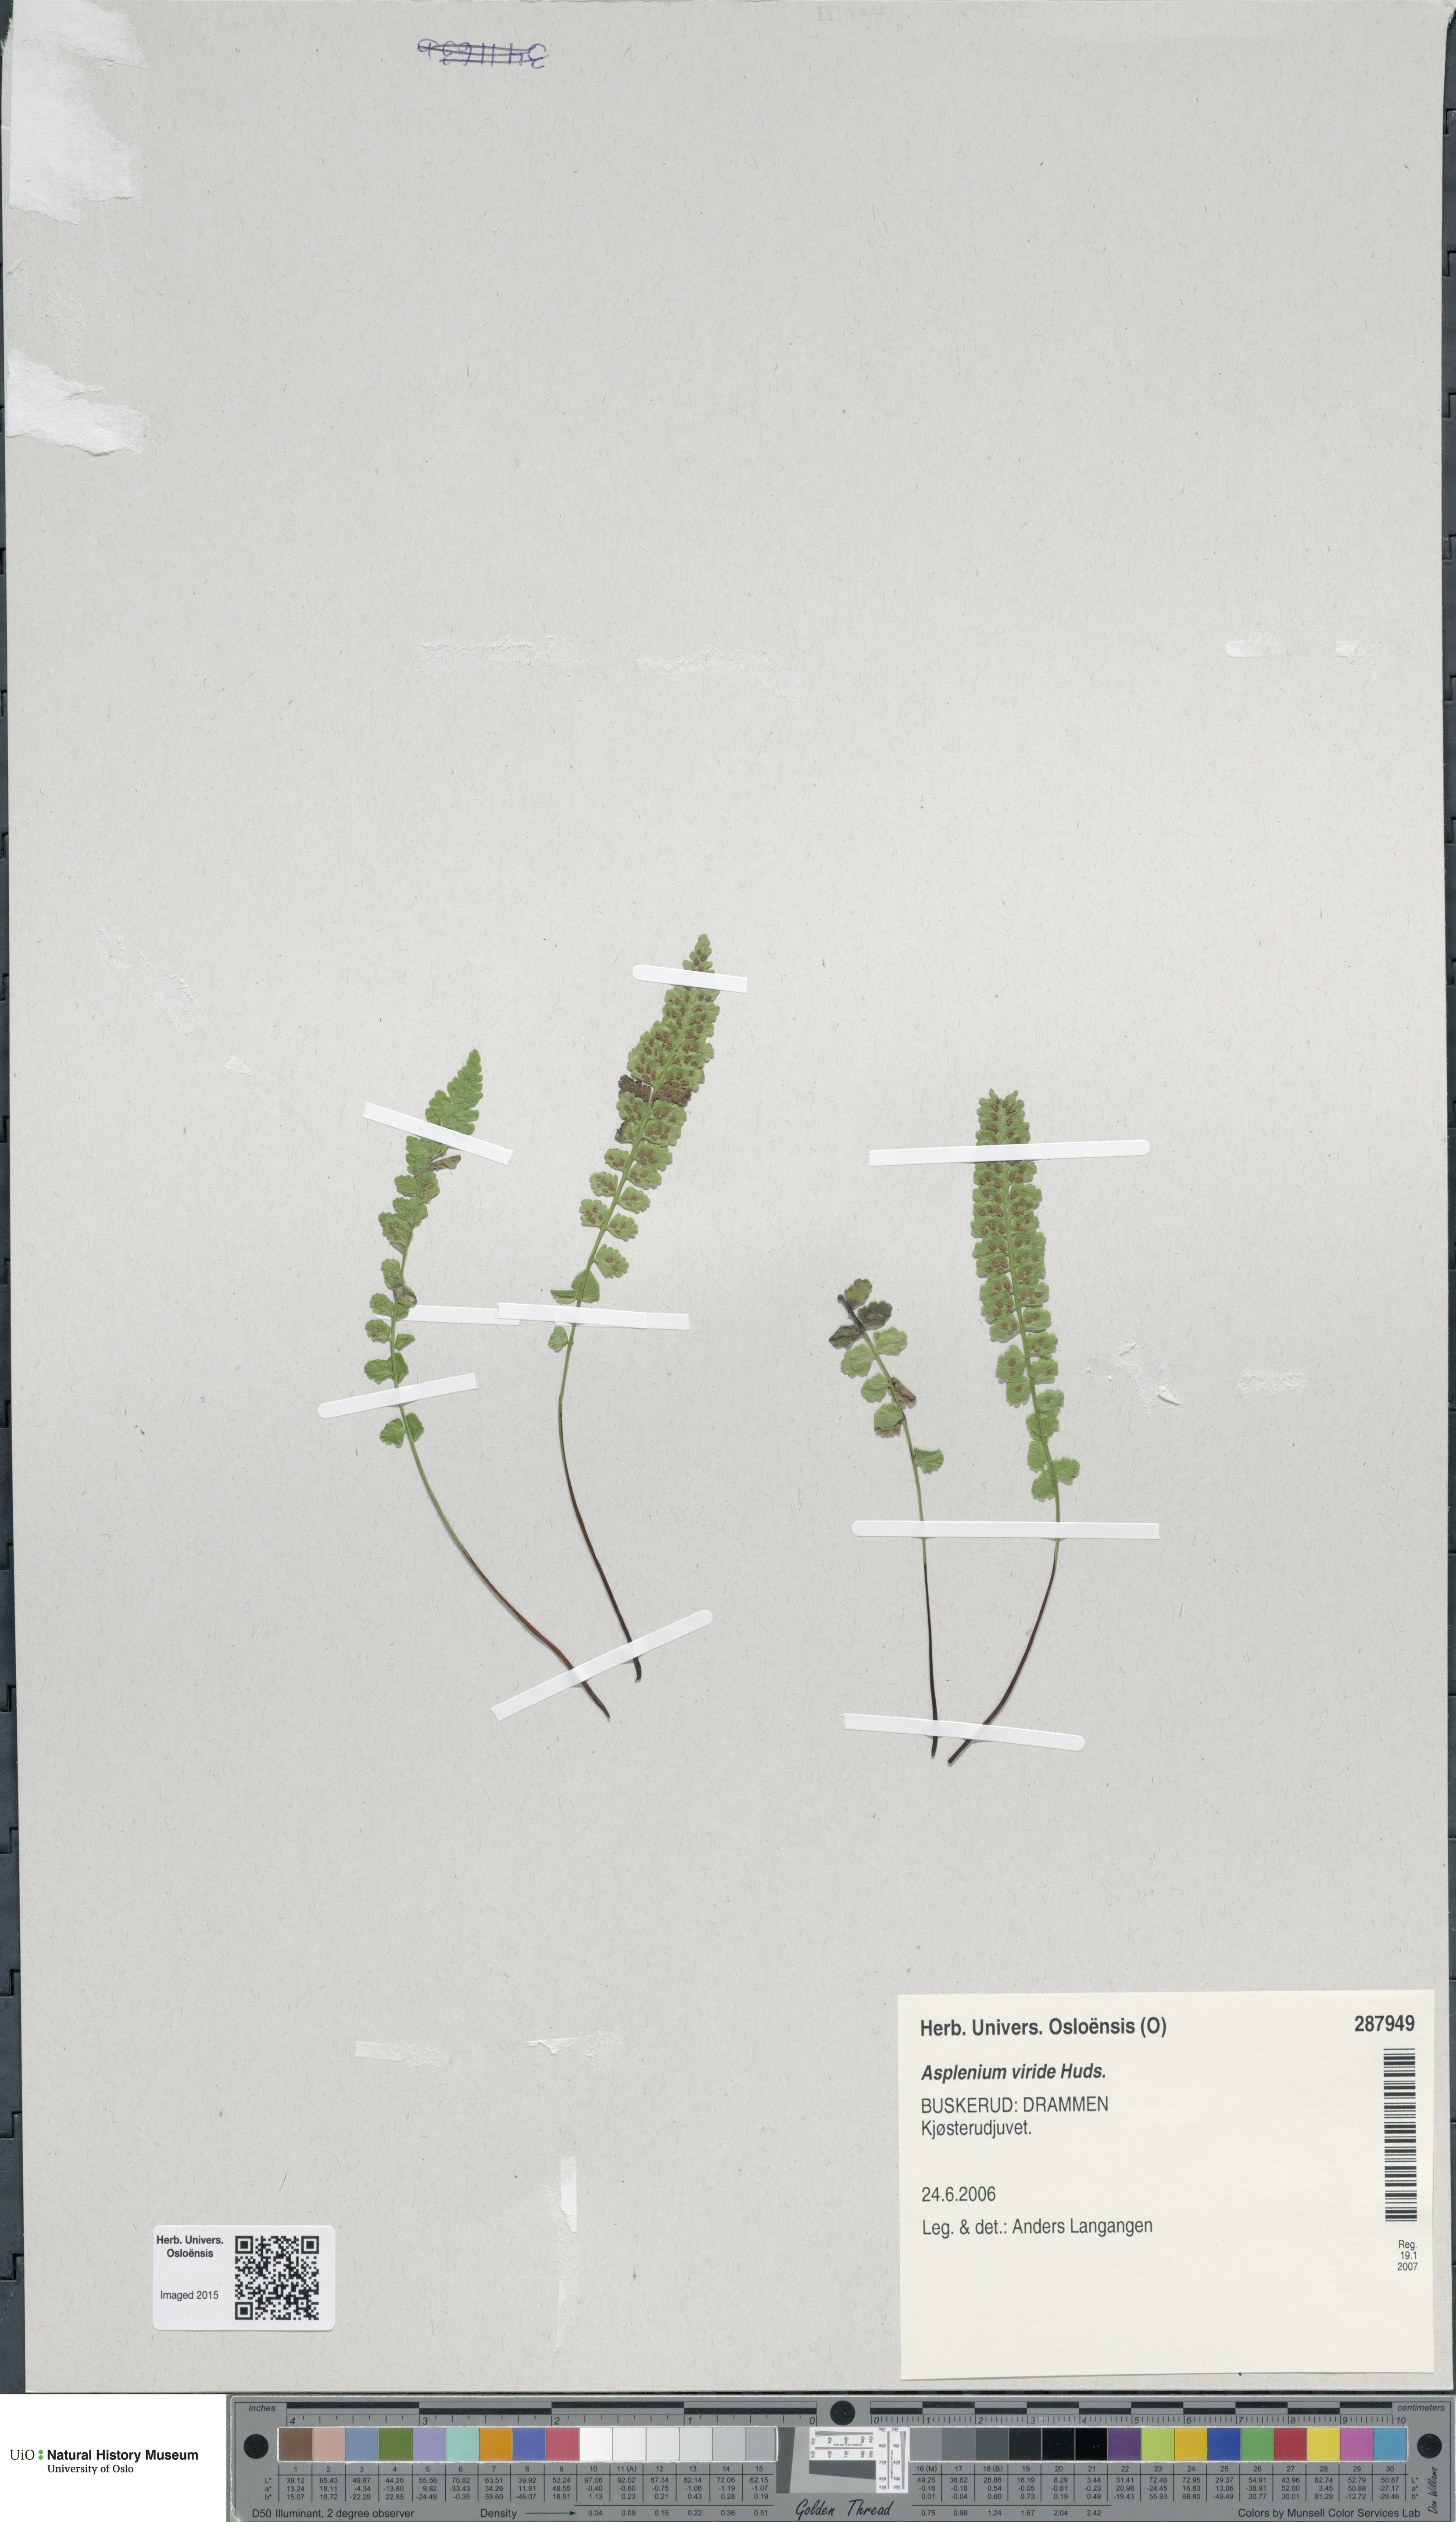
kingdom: Plantae
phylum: Tracheophyta
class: Polypodiopsida
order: Polypodiales
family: Aspleniaceae
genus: Asplenium
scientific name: Asplenium viride
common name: Green spleenwort
